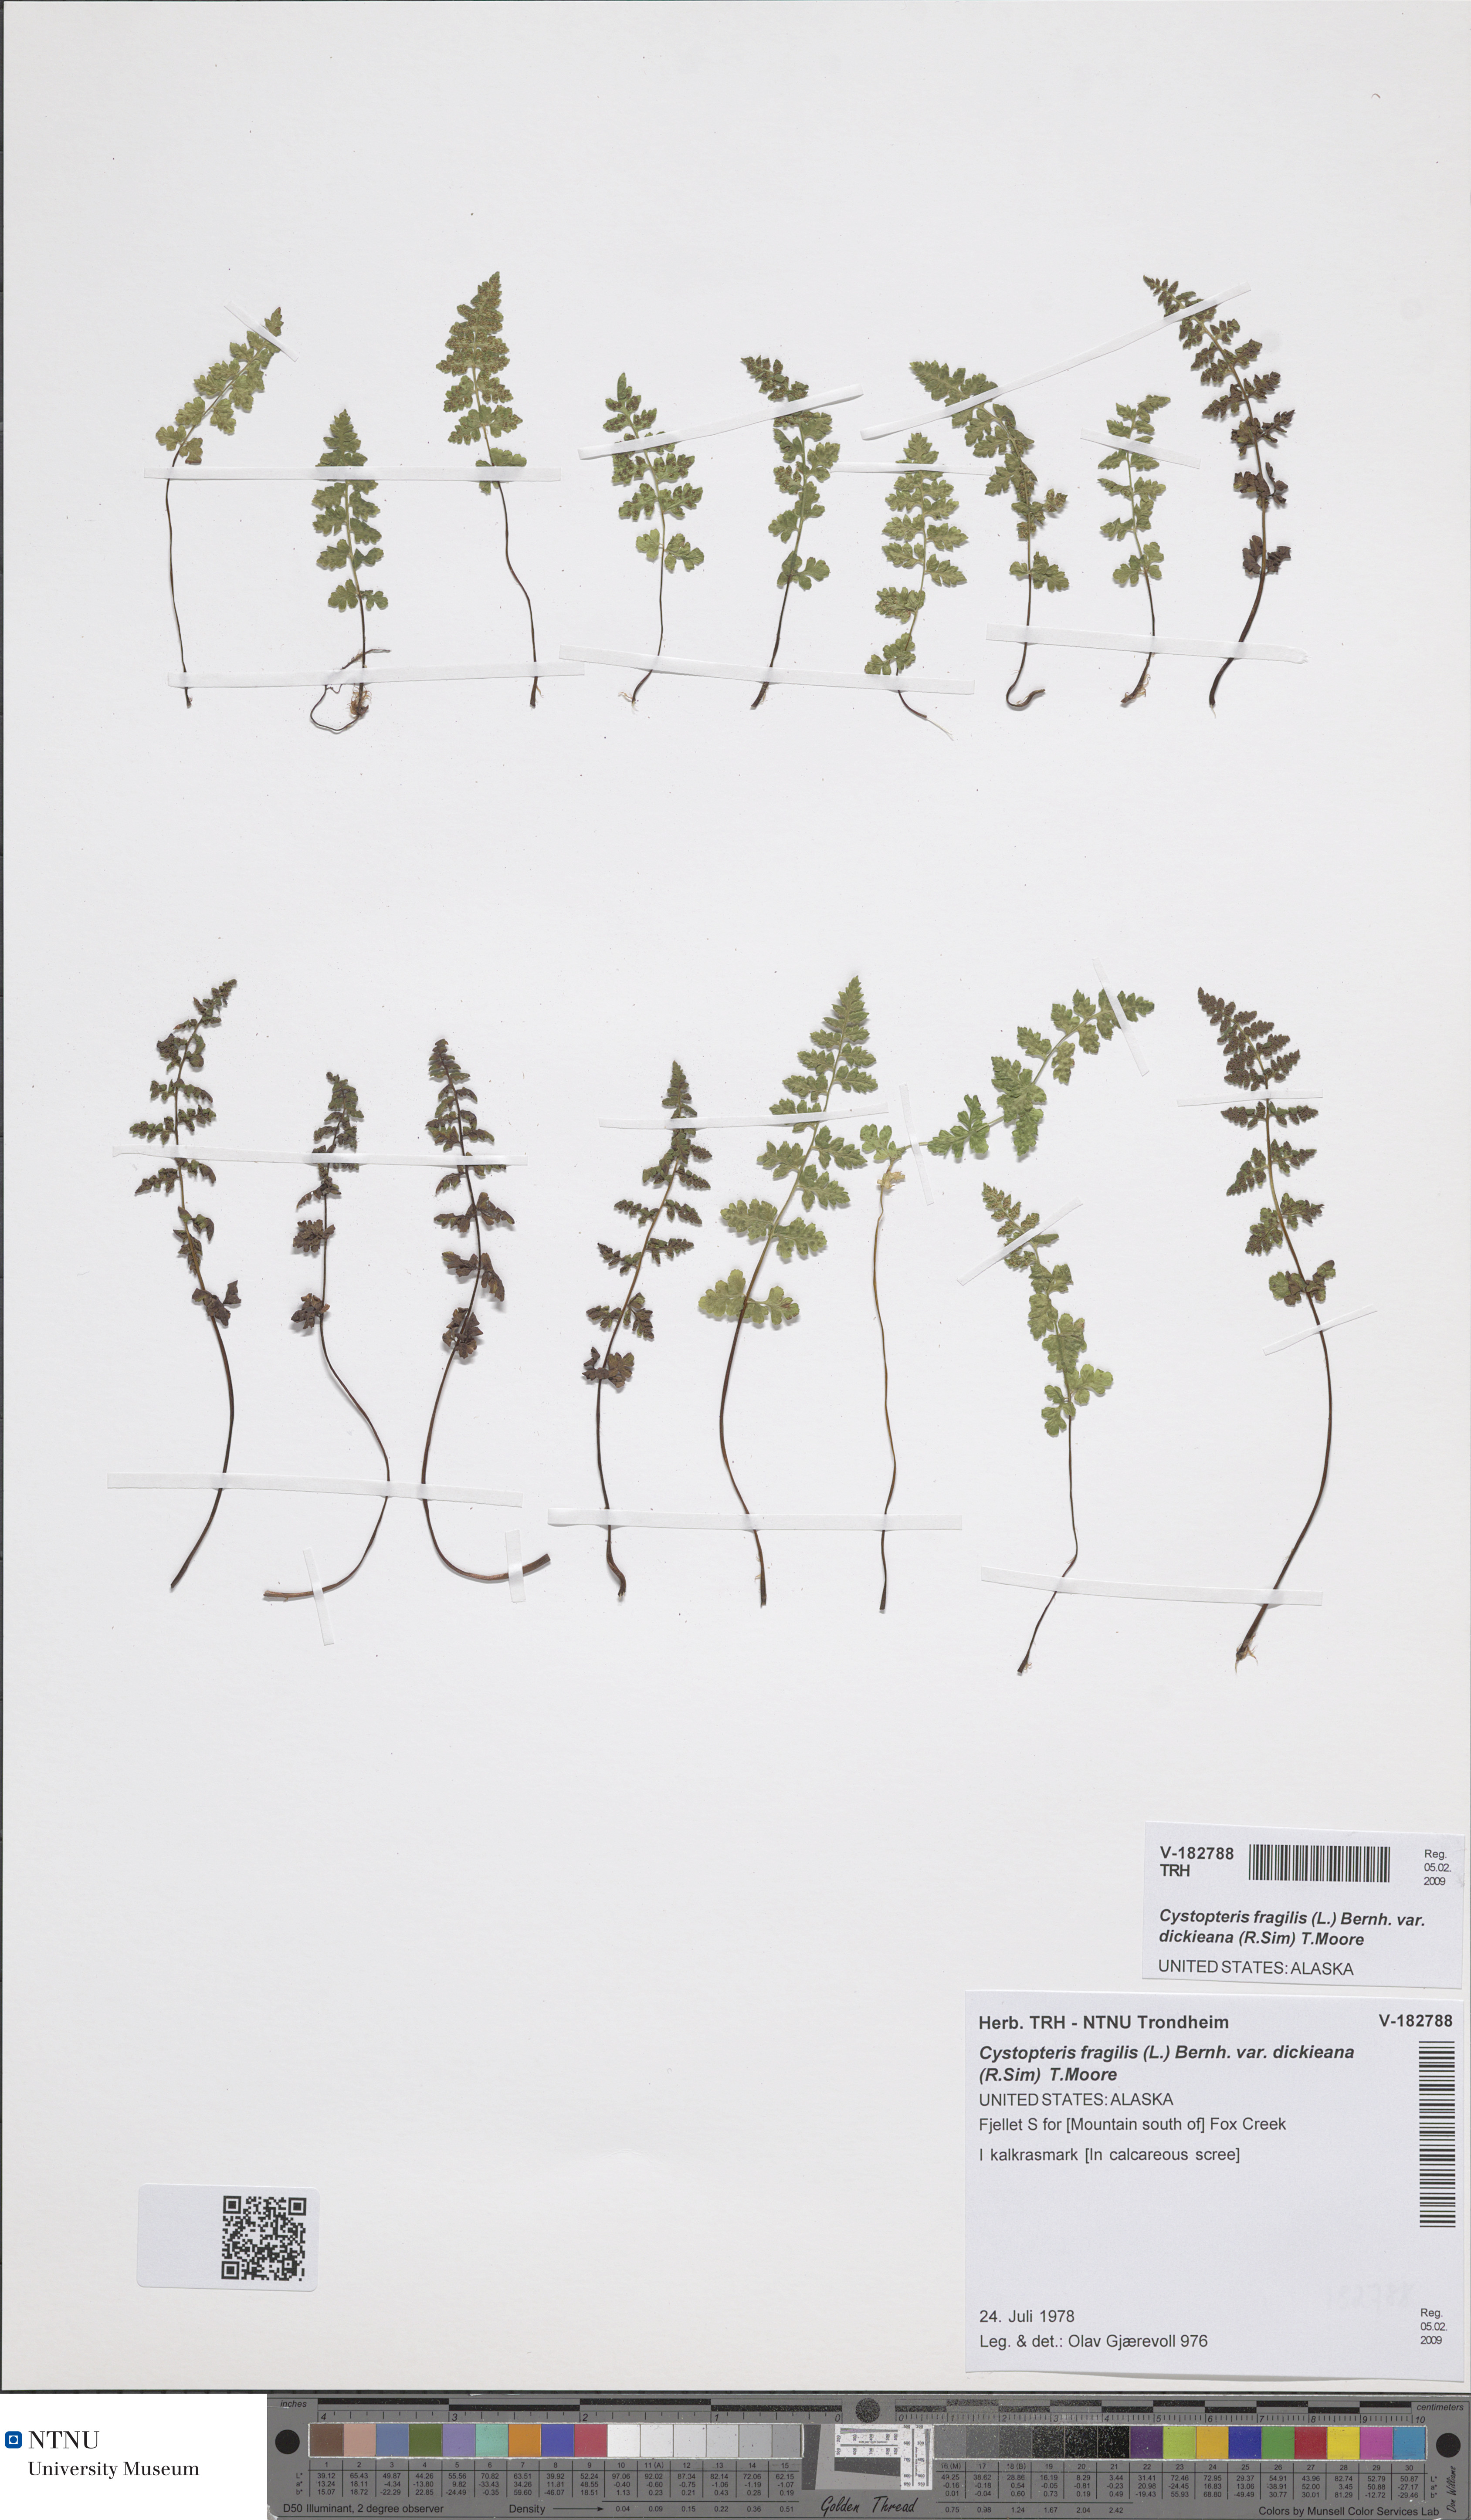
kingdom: Plantae
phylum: Tracheophyta
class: Polypodiopsida
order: Polypodiales
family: Cystopteridaceae
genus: Cystopteris
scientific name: Cystopteris dickieana
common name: Dickie's bladder-fern
